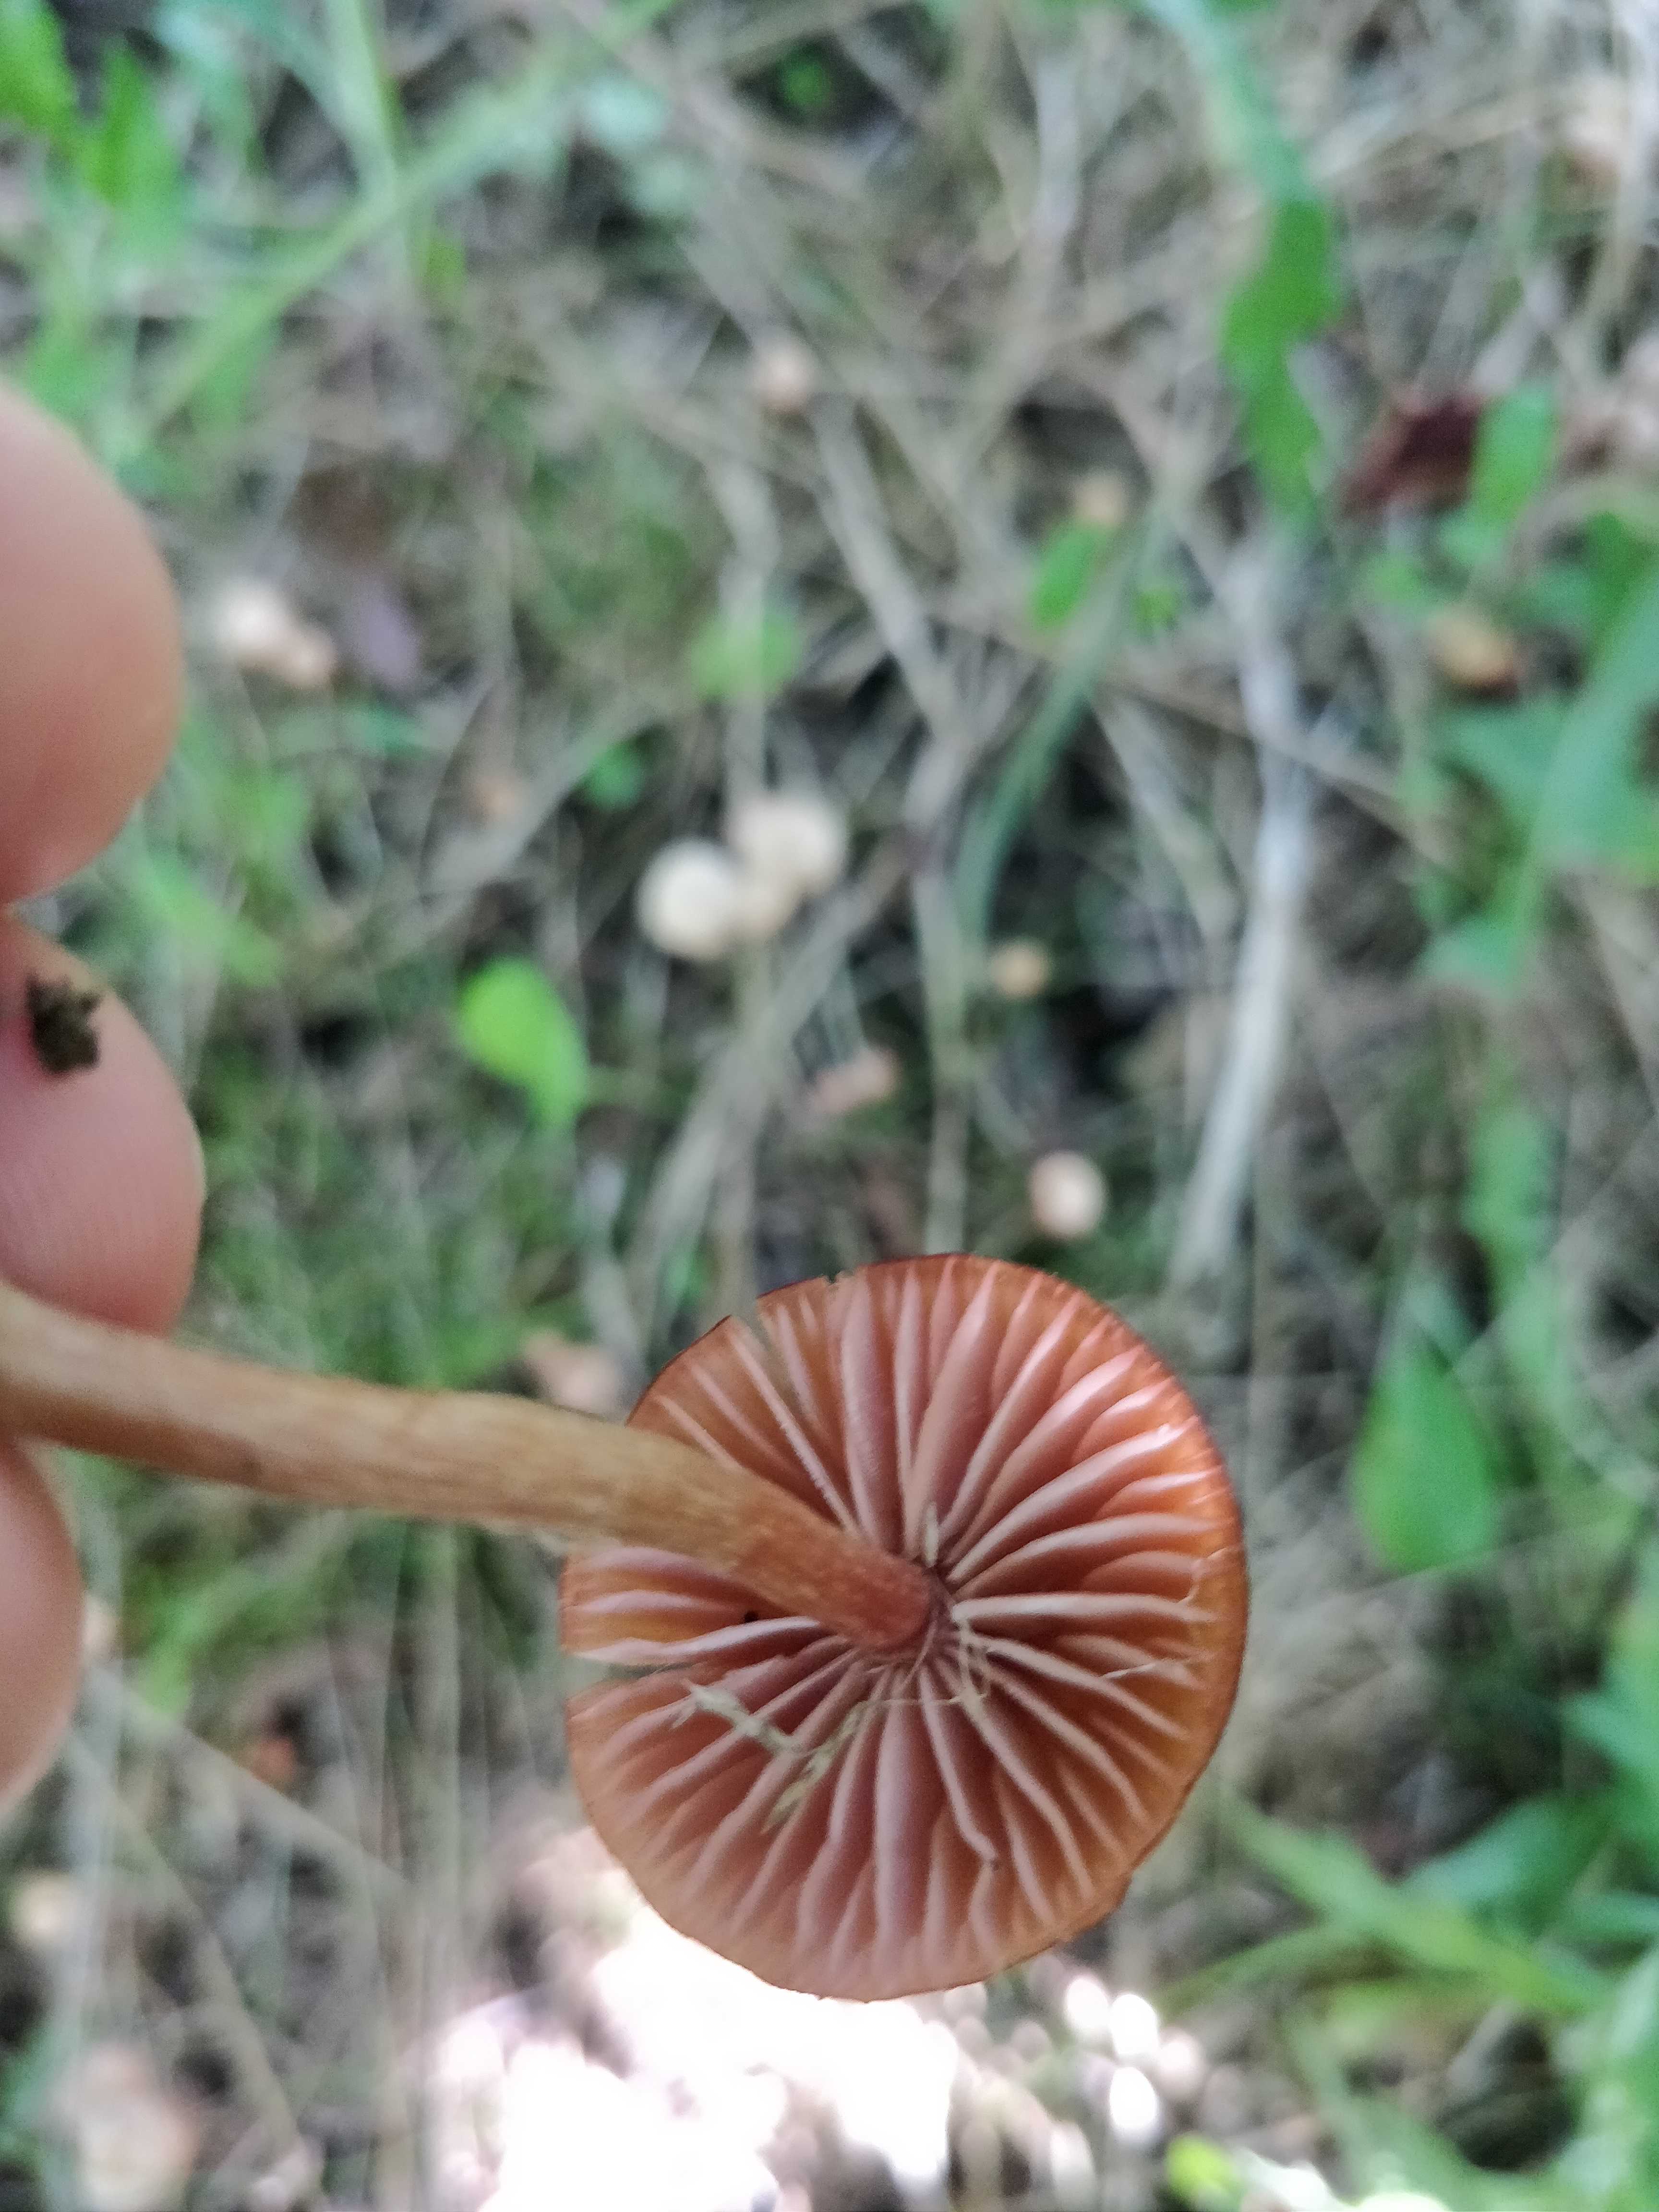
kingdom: Fungi
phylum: Basidiomycota
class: Agaricomycetes
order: Agaricales
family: Hydnangiaceae
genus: Laccaria
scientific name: Laccaria laccata
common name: rød ametysthat
